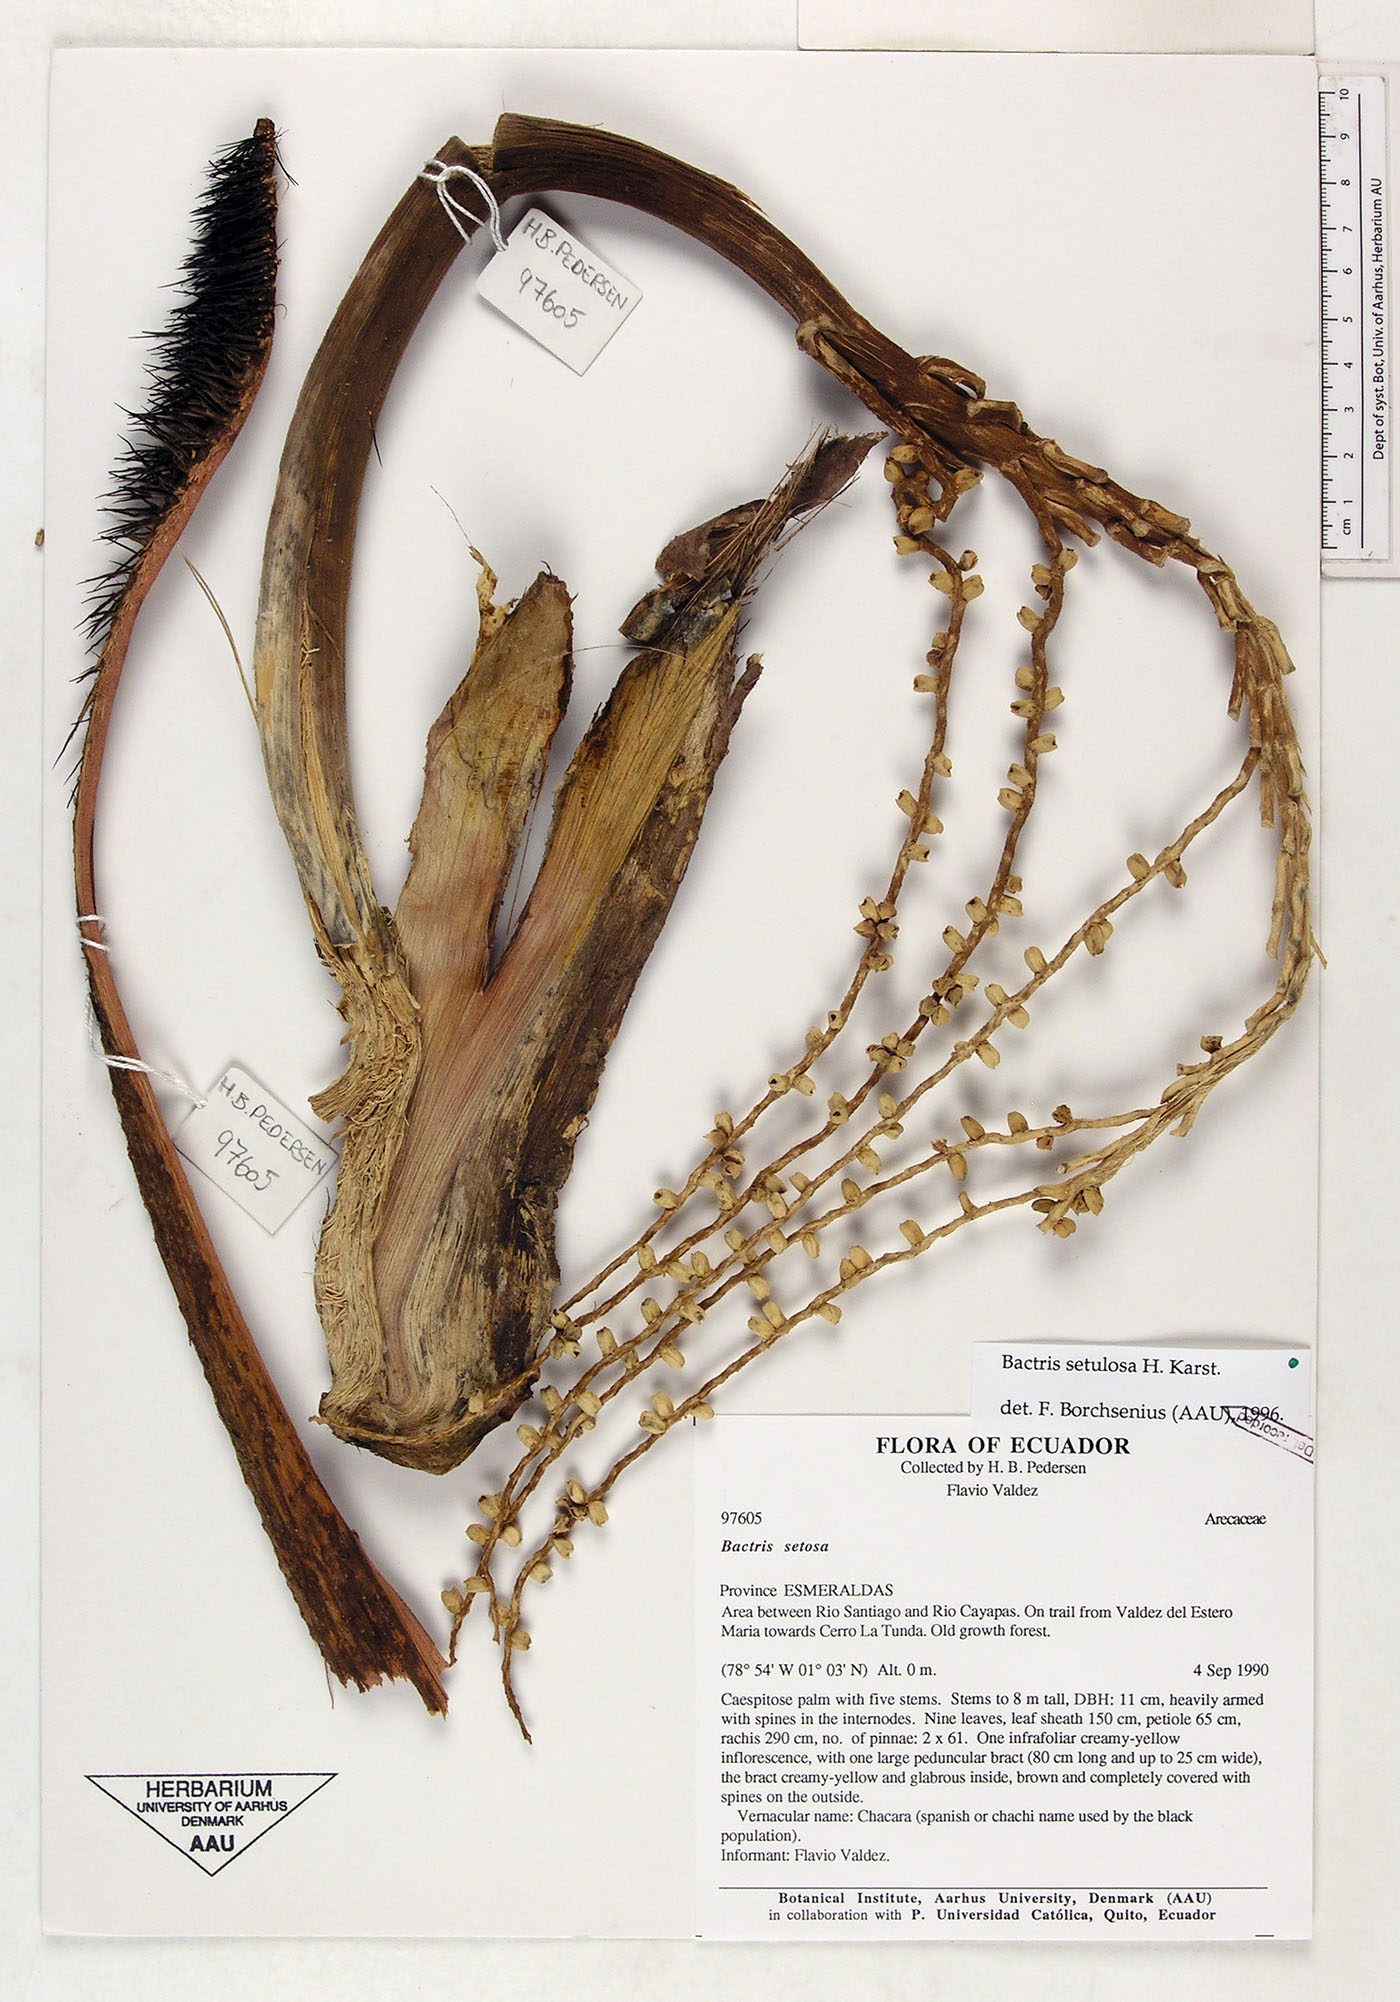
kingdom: Plantae
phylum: Tracheophyta
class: Liliopsida
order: Arecales
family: Arecaceae
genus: Bactris
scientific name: Bactris setulosa
